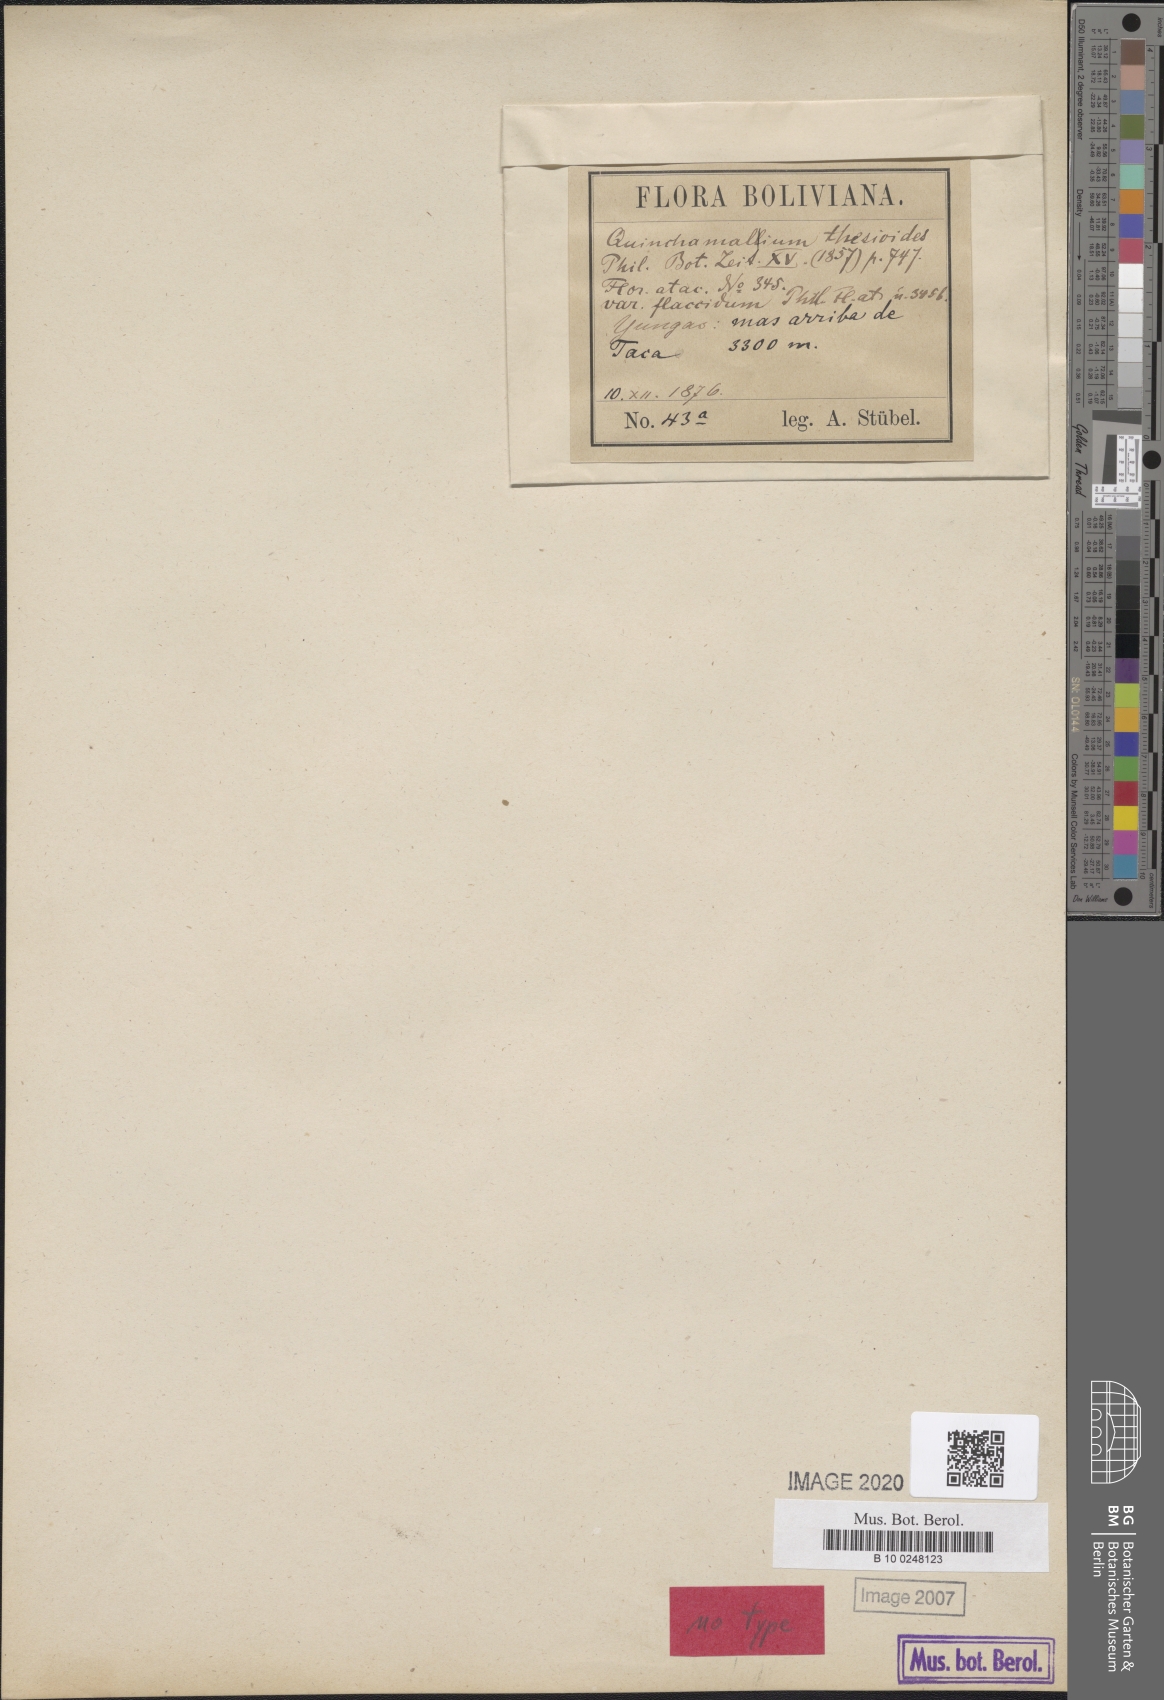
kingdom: Plantae
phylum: Tracheophyta
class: Magnoliopsida
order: Santalales
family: Schoepfiaceae
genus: Quinchamalium
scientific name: Quinchamalium chilense
